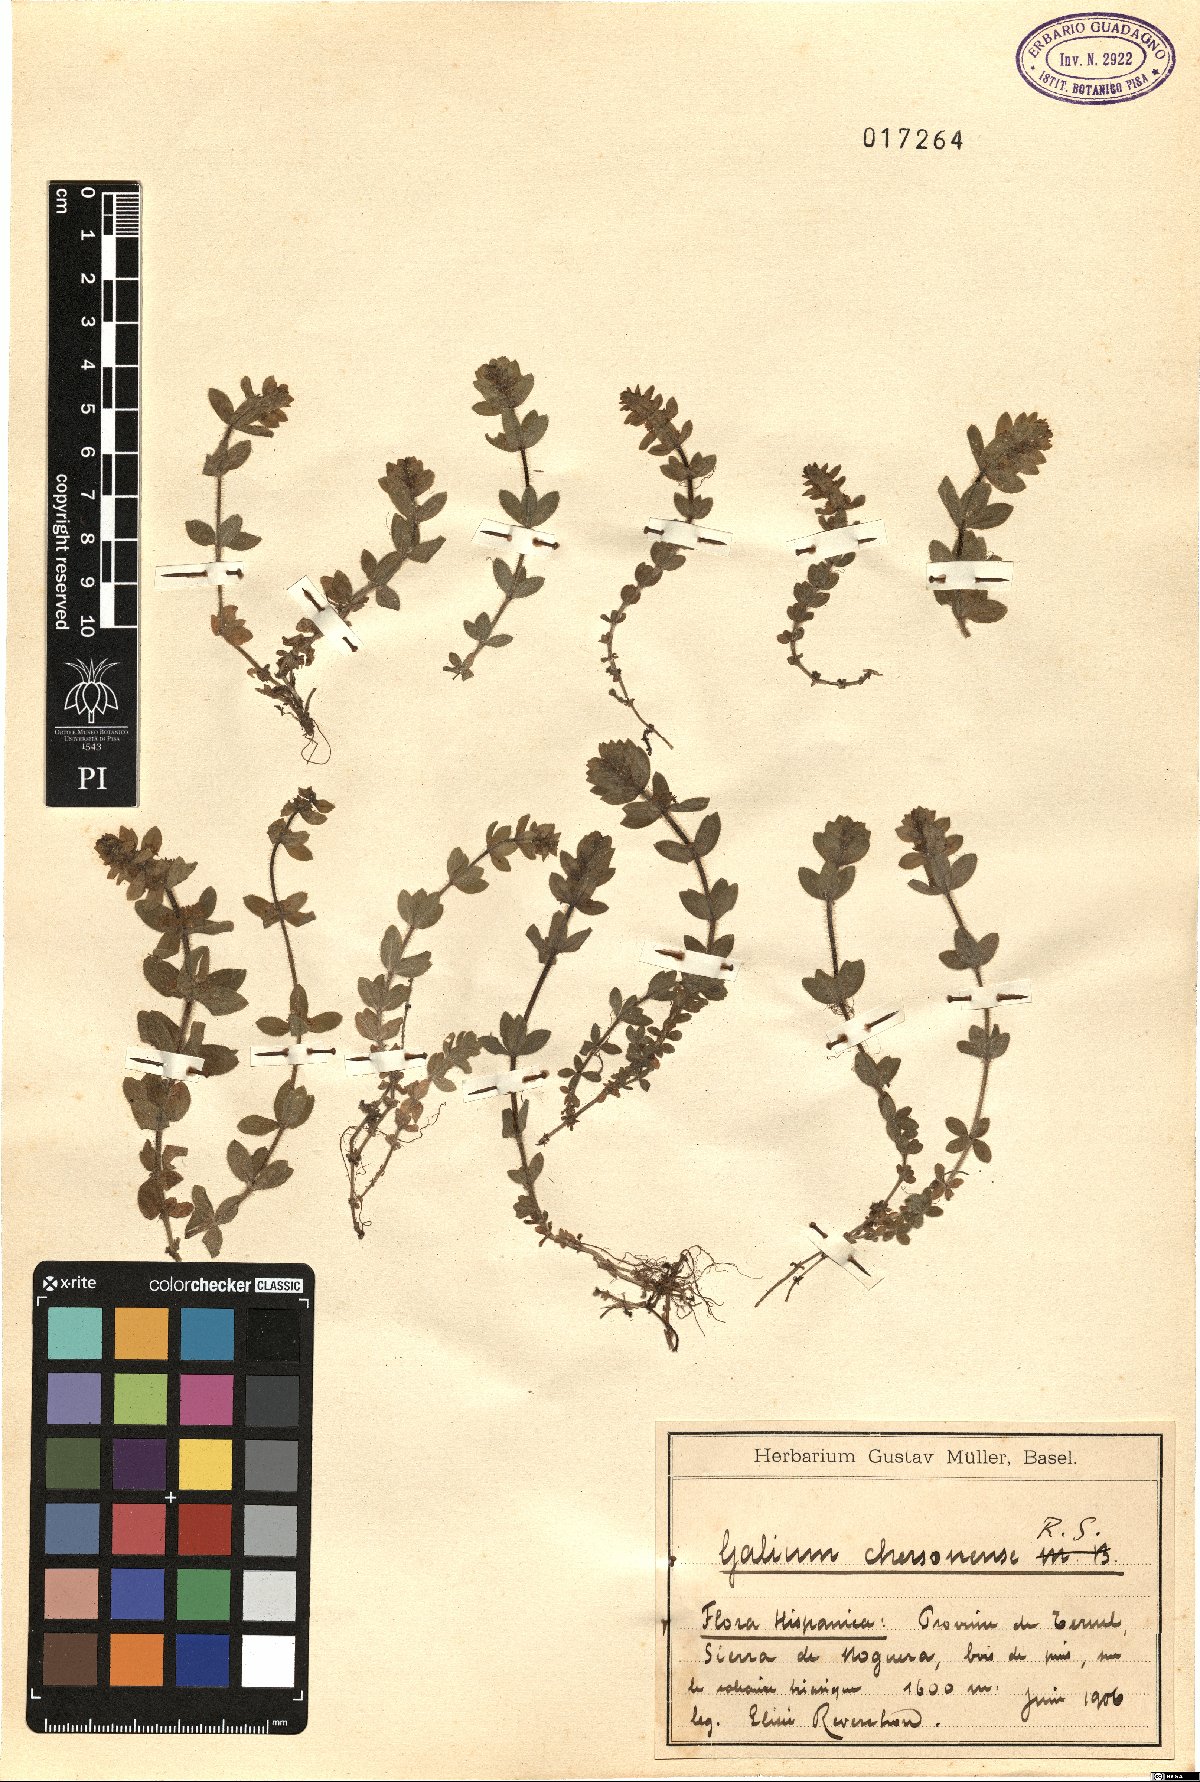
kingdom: Plantae
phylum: Tracheophyta
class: Magnoliopsida
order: Gentianales
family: Rubiaceae
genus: Cruciata
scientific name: Cruciata taurica
